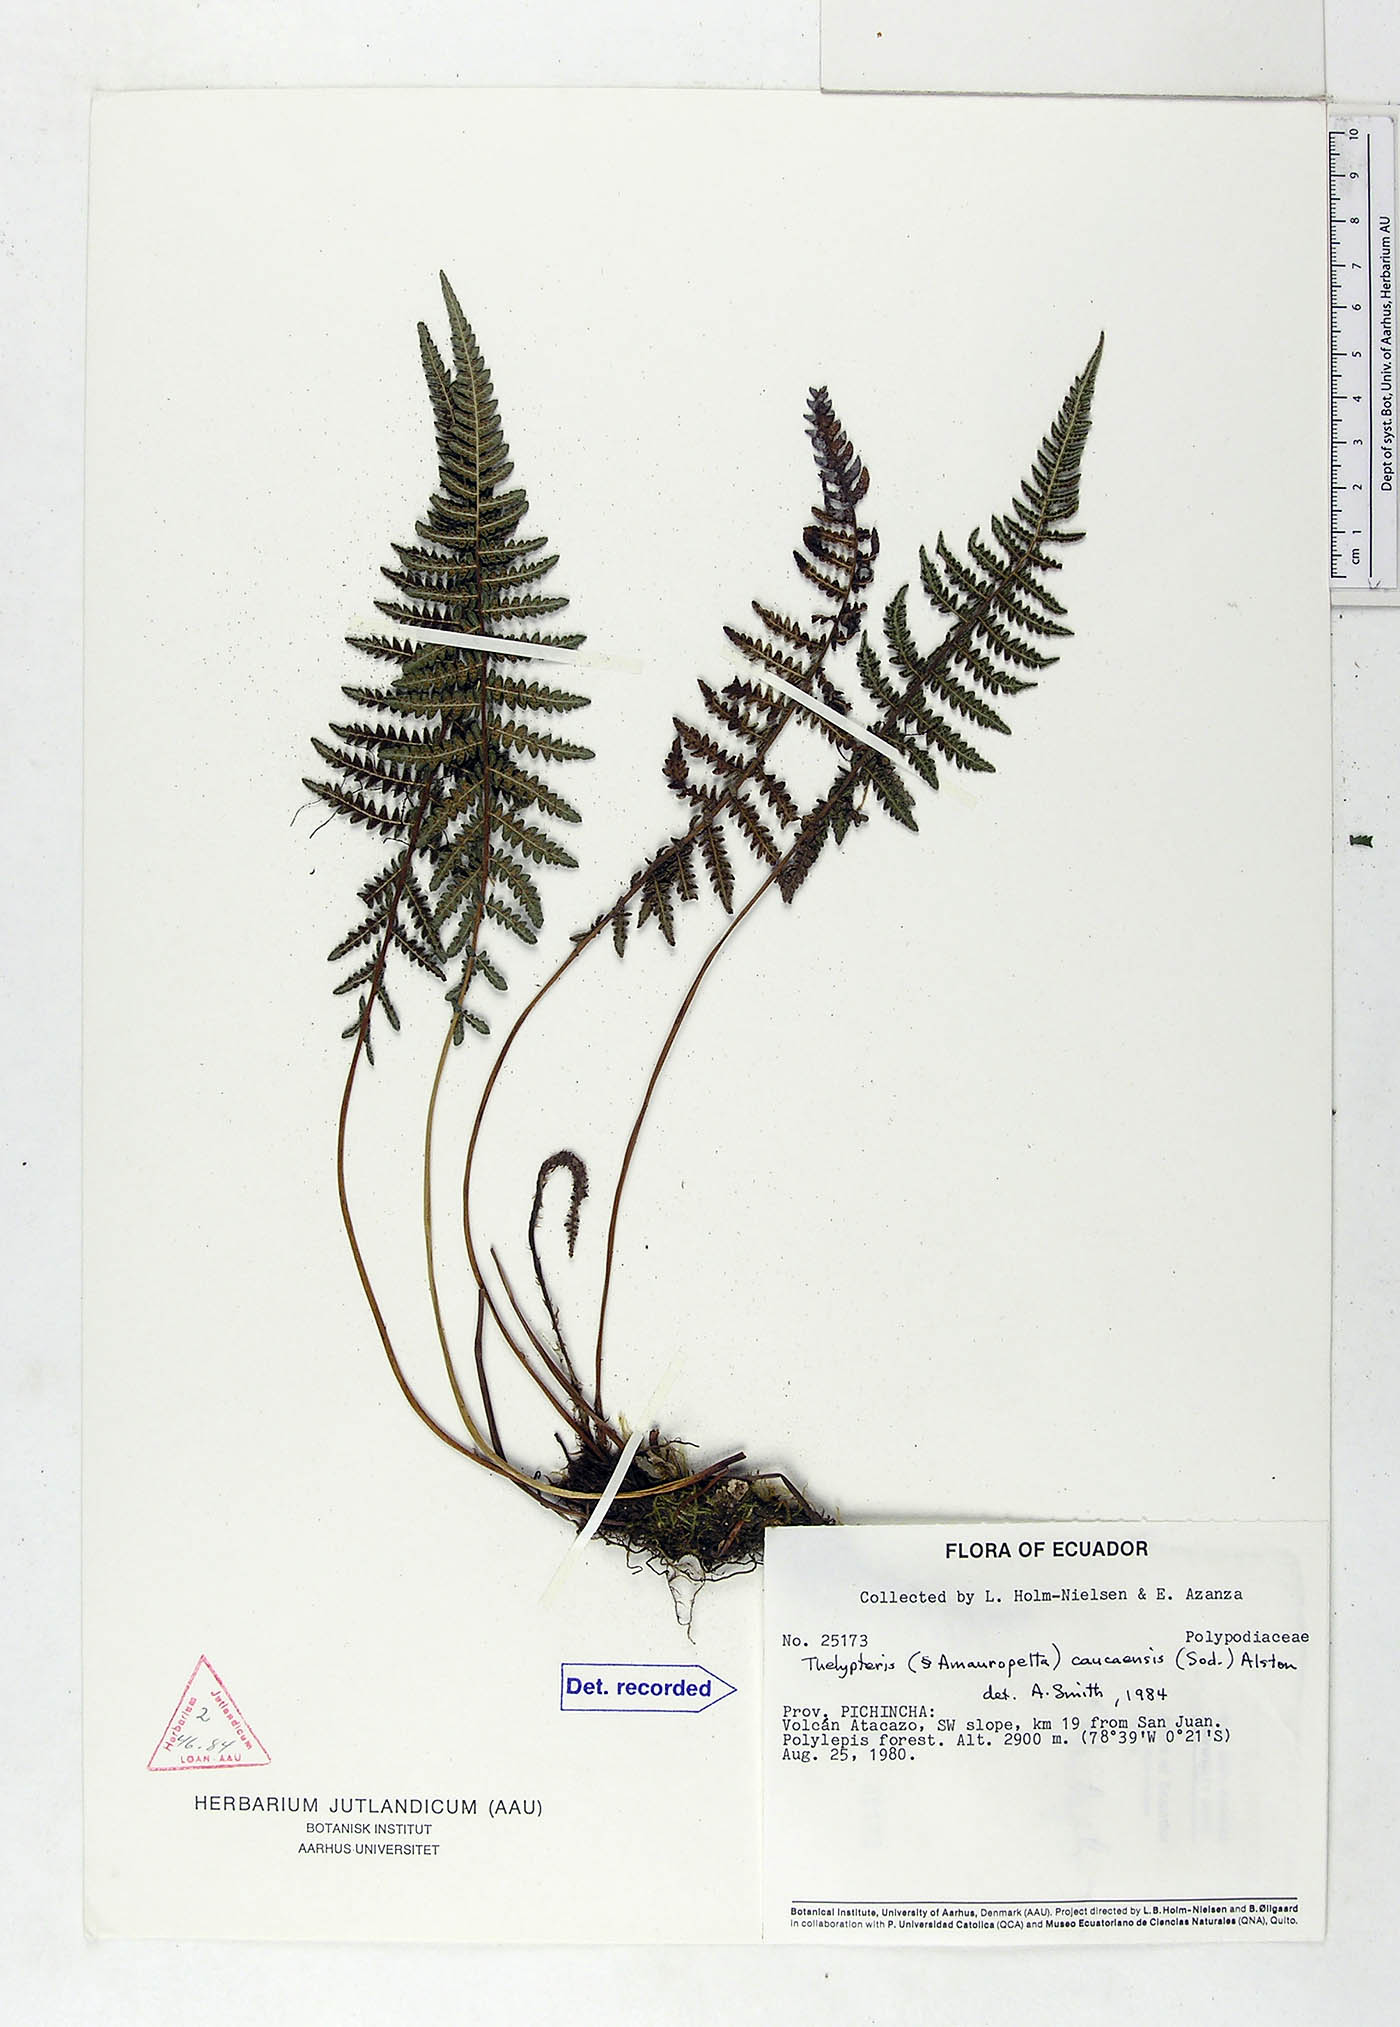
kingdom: Plantae
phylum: Tracheophyta
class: Polypodiopsida
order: Polypodiales
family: Thelypteridaceae
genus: Amauropelta
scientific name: Amauropelta caucaensis
